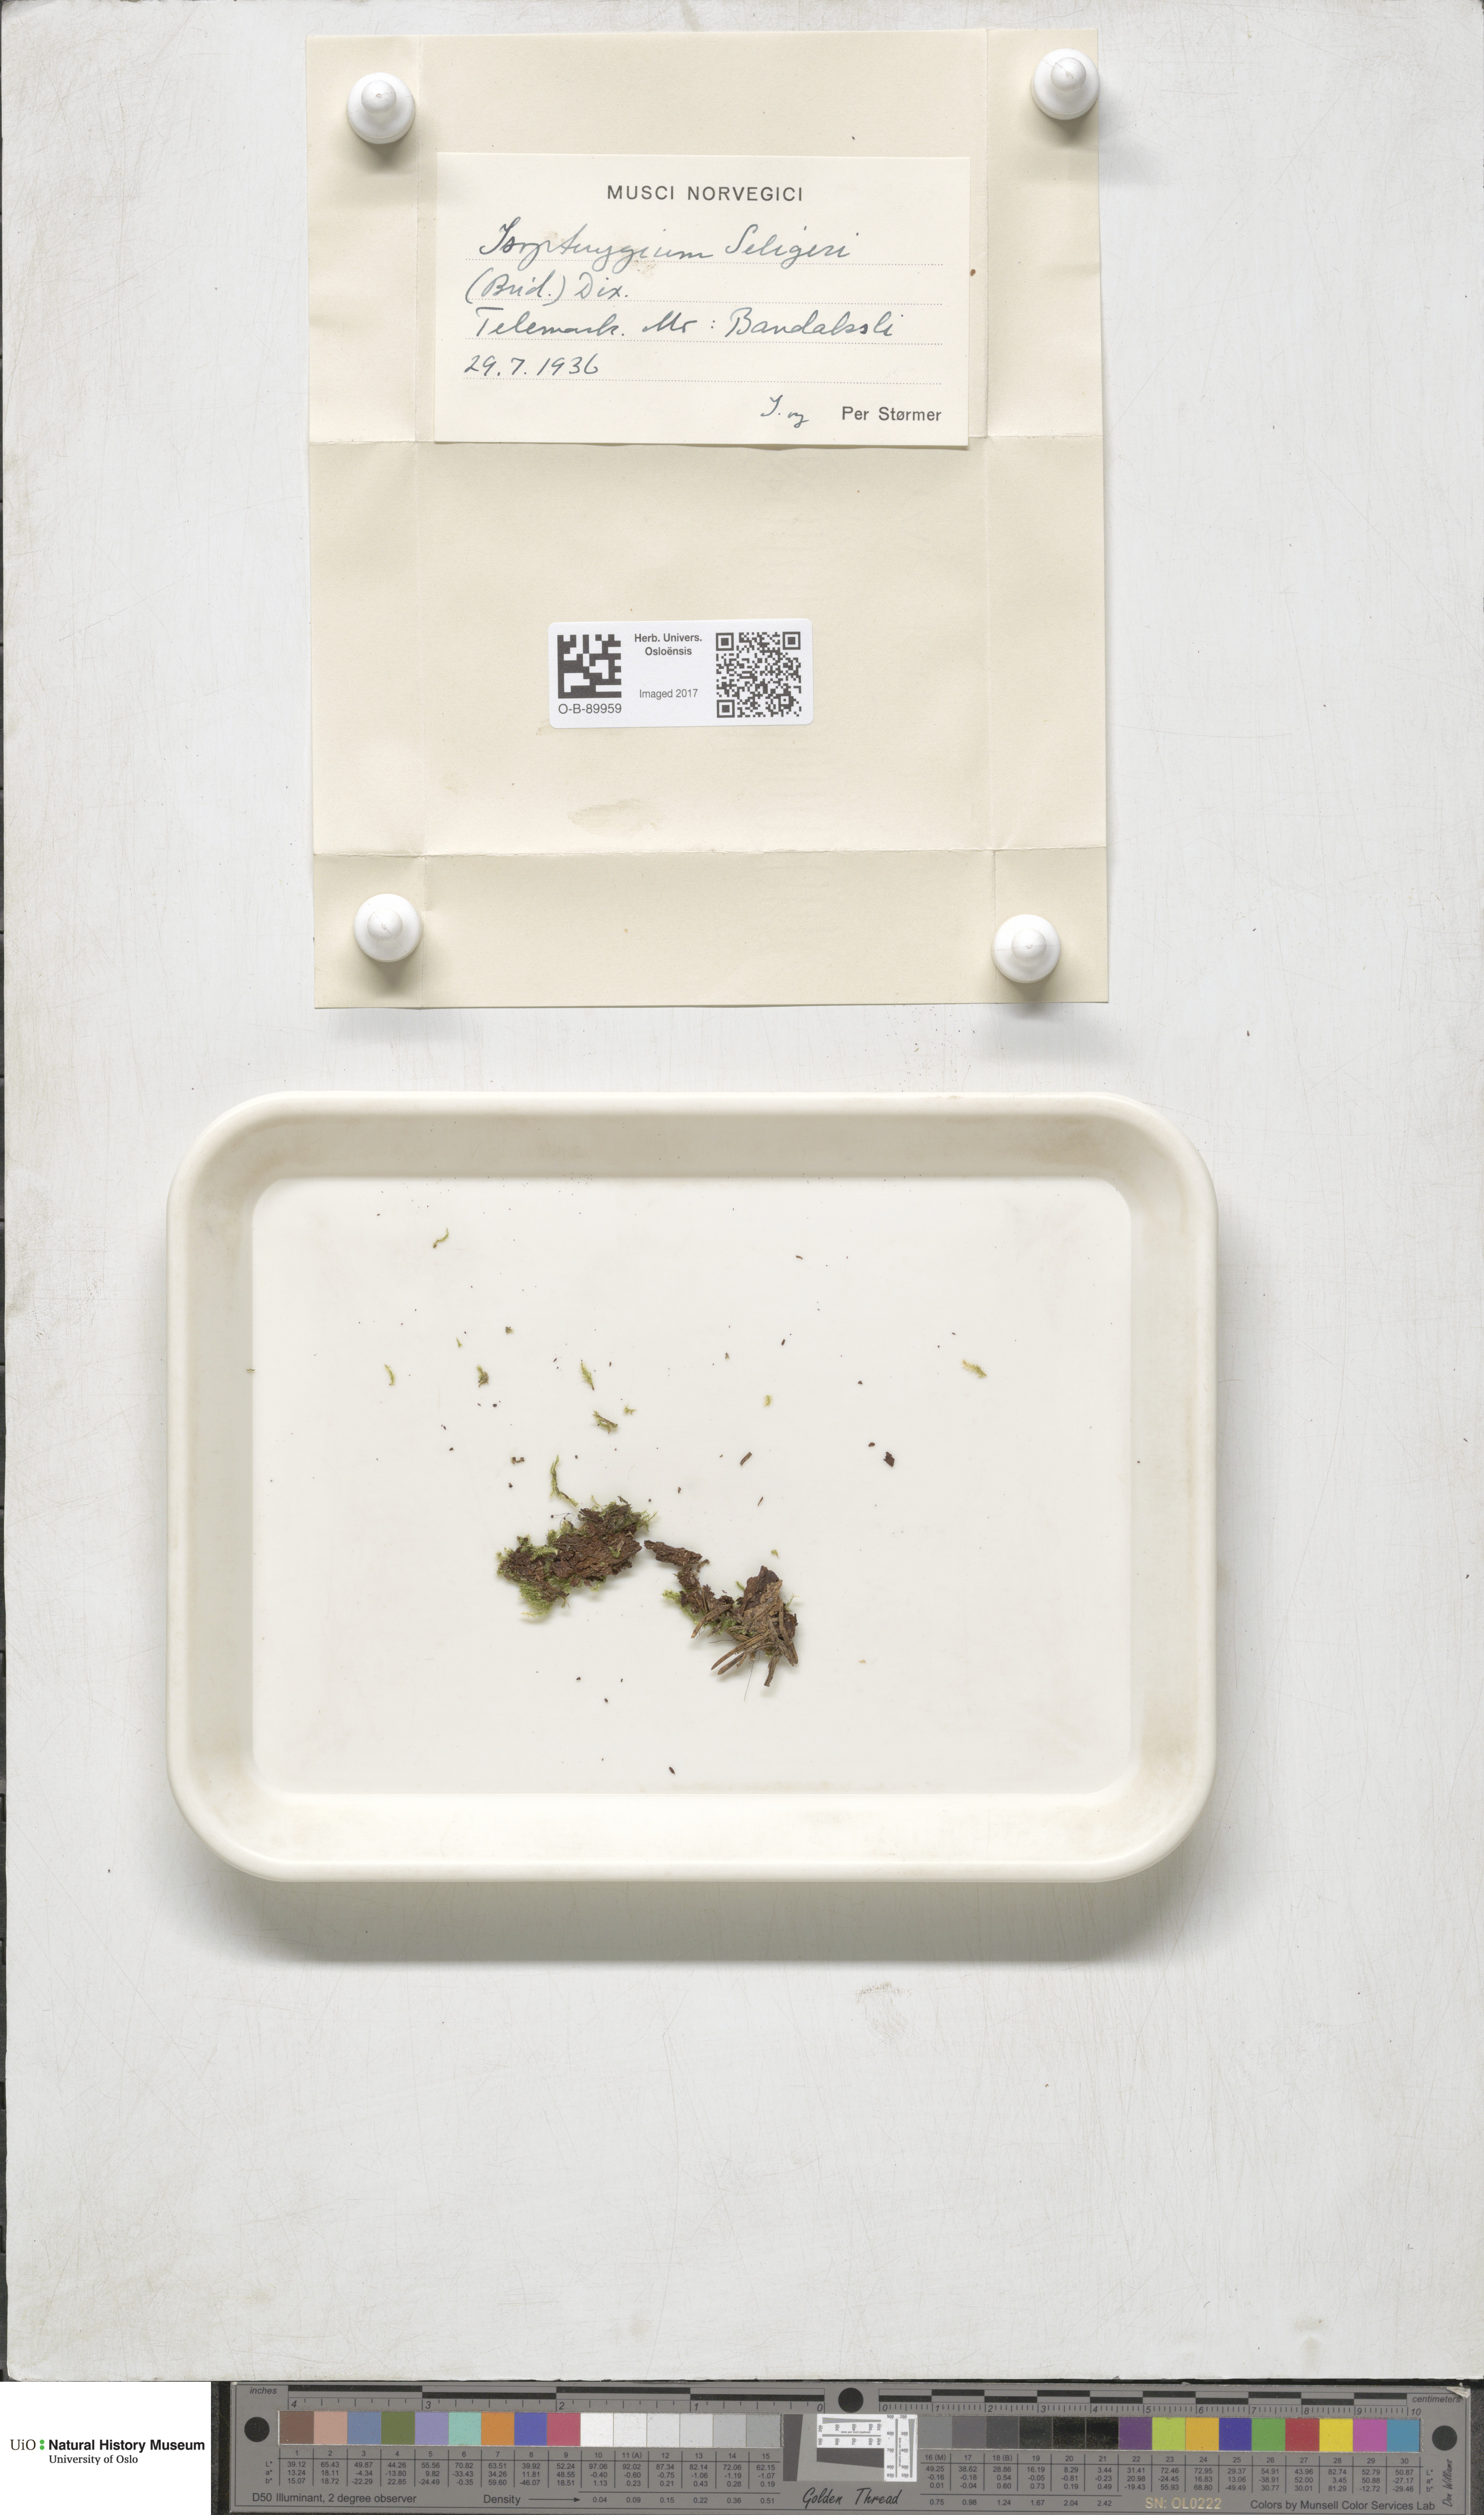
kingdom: Plantae
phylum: Bryophyta
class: Bryopsida
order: Hypnales
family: Plagiotheciaceae
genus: Herzogiella
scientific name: Herzogiella seligeri
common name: Silesian feather-moss
